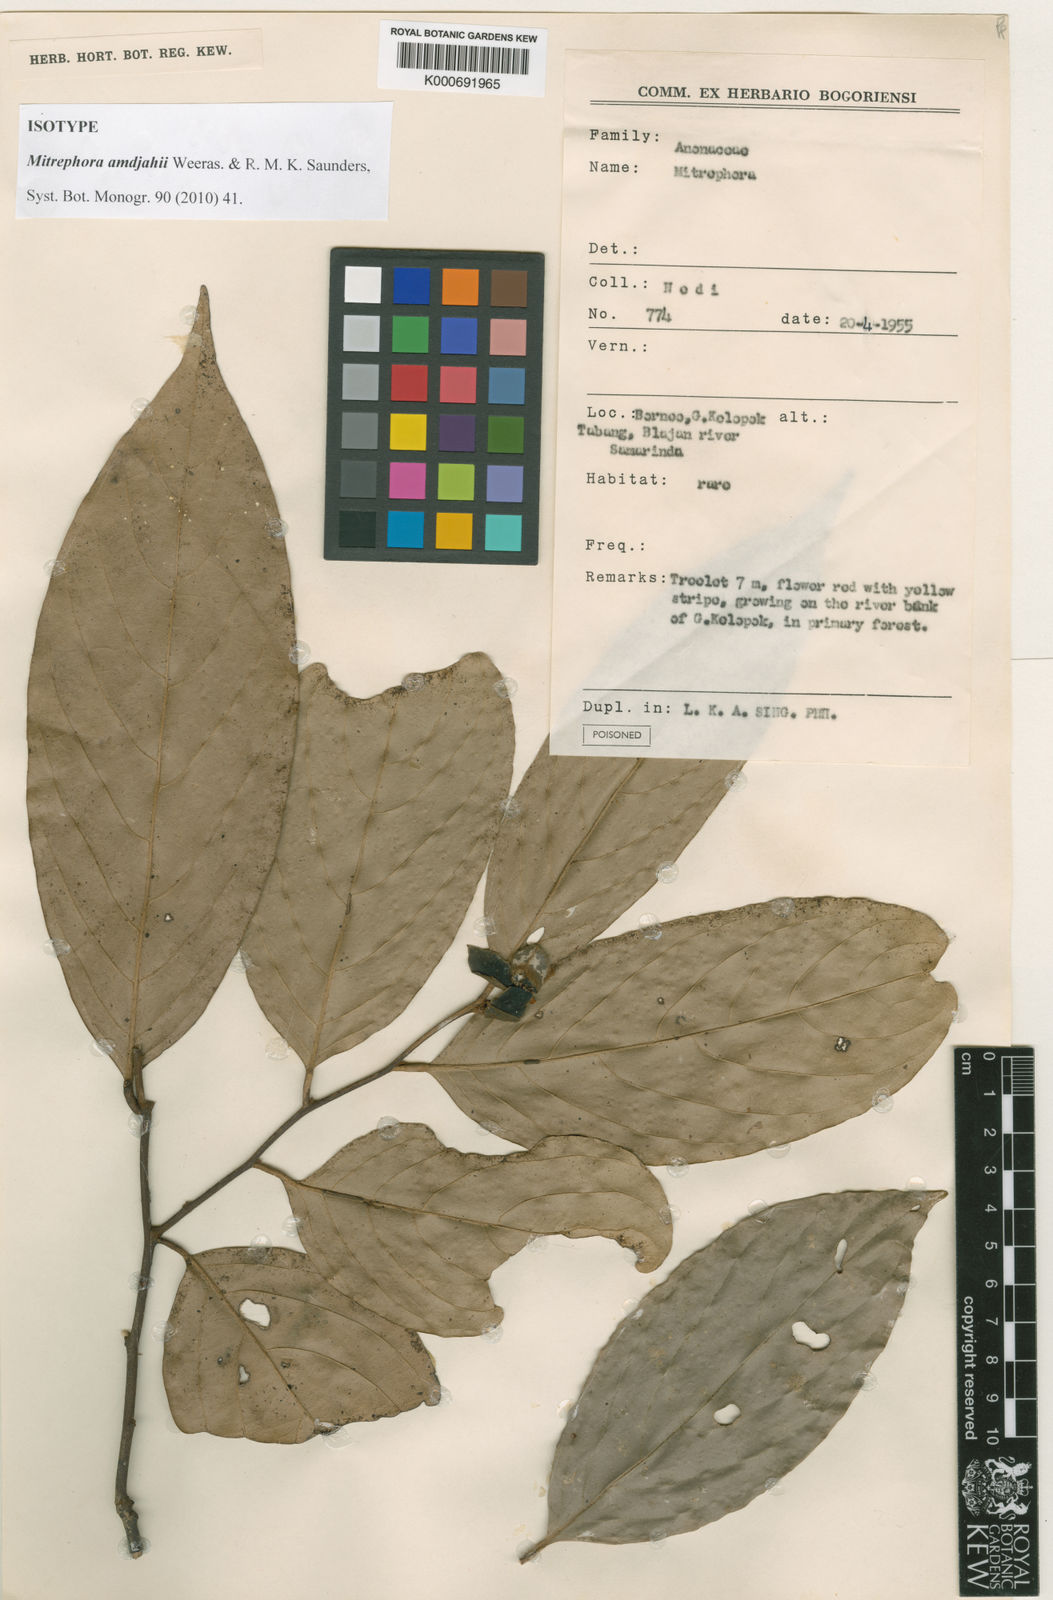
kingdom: Plantae
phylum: Tracheophyta
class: Magnoliopsida
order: Magnoliales
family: Annonaceae
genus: Mitrephora
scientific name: Mitrephora amdjahii
